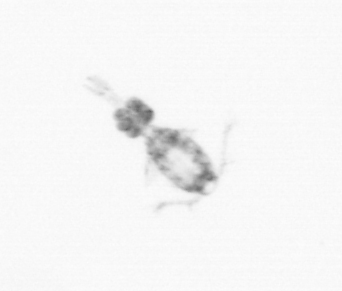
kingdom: Animalia
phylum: Arthropoda
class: Copepoda
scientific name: Copepoda
